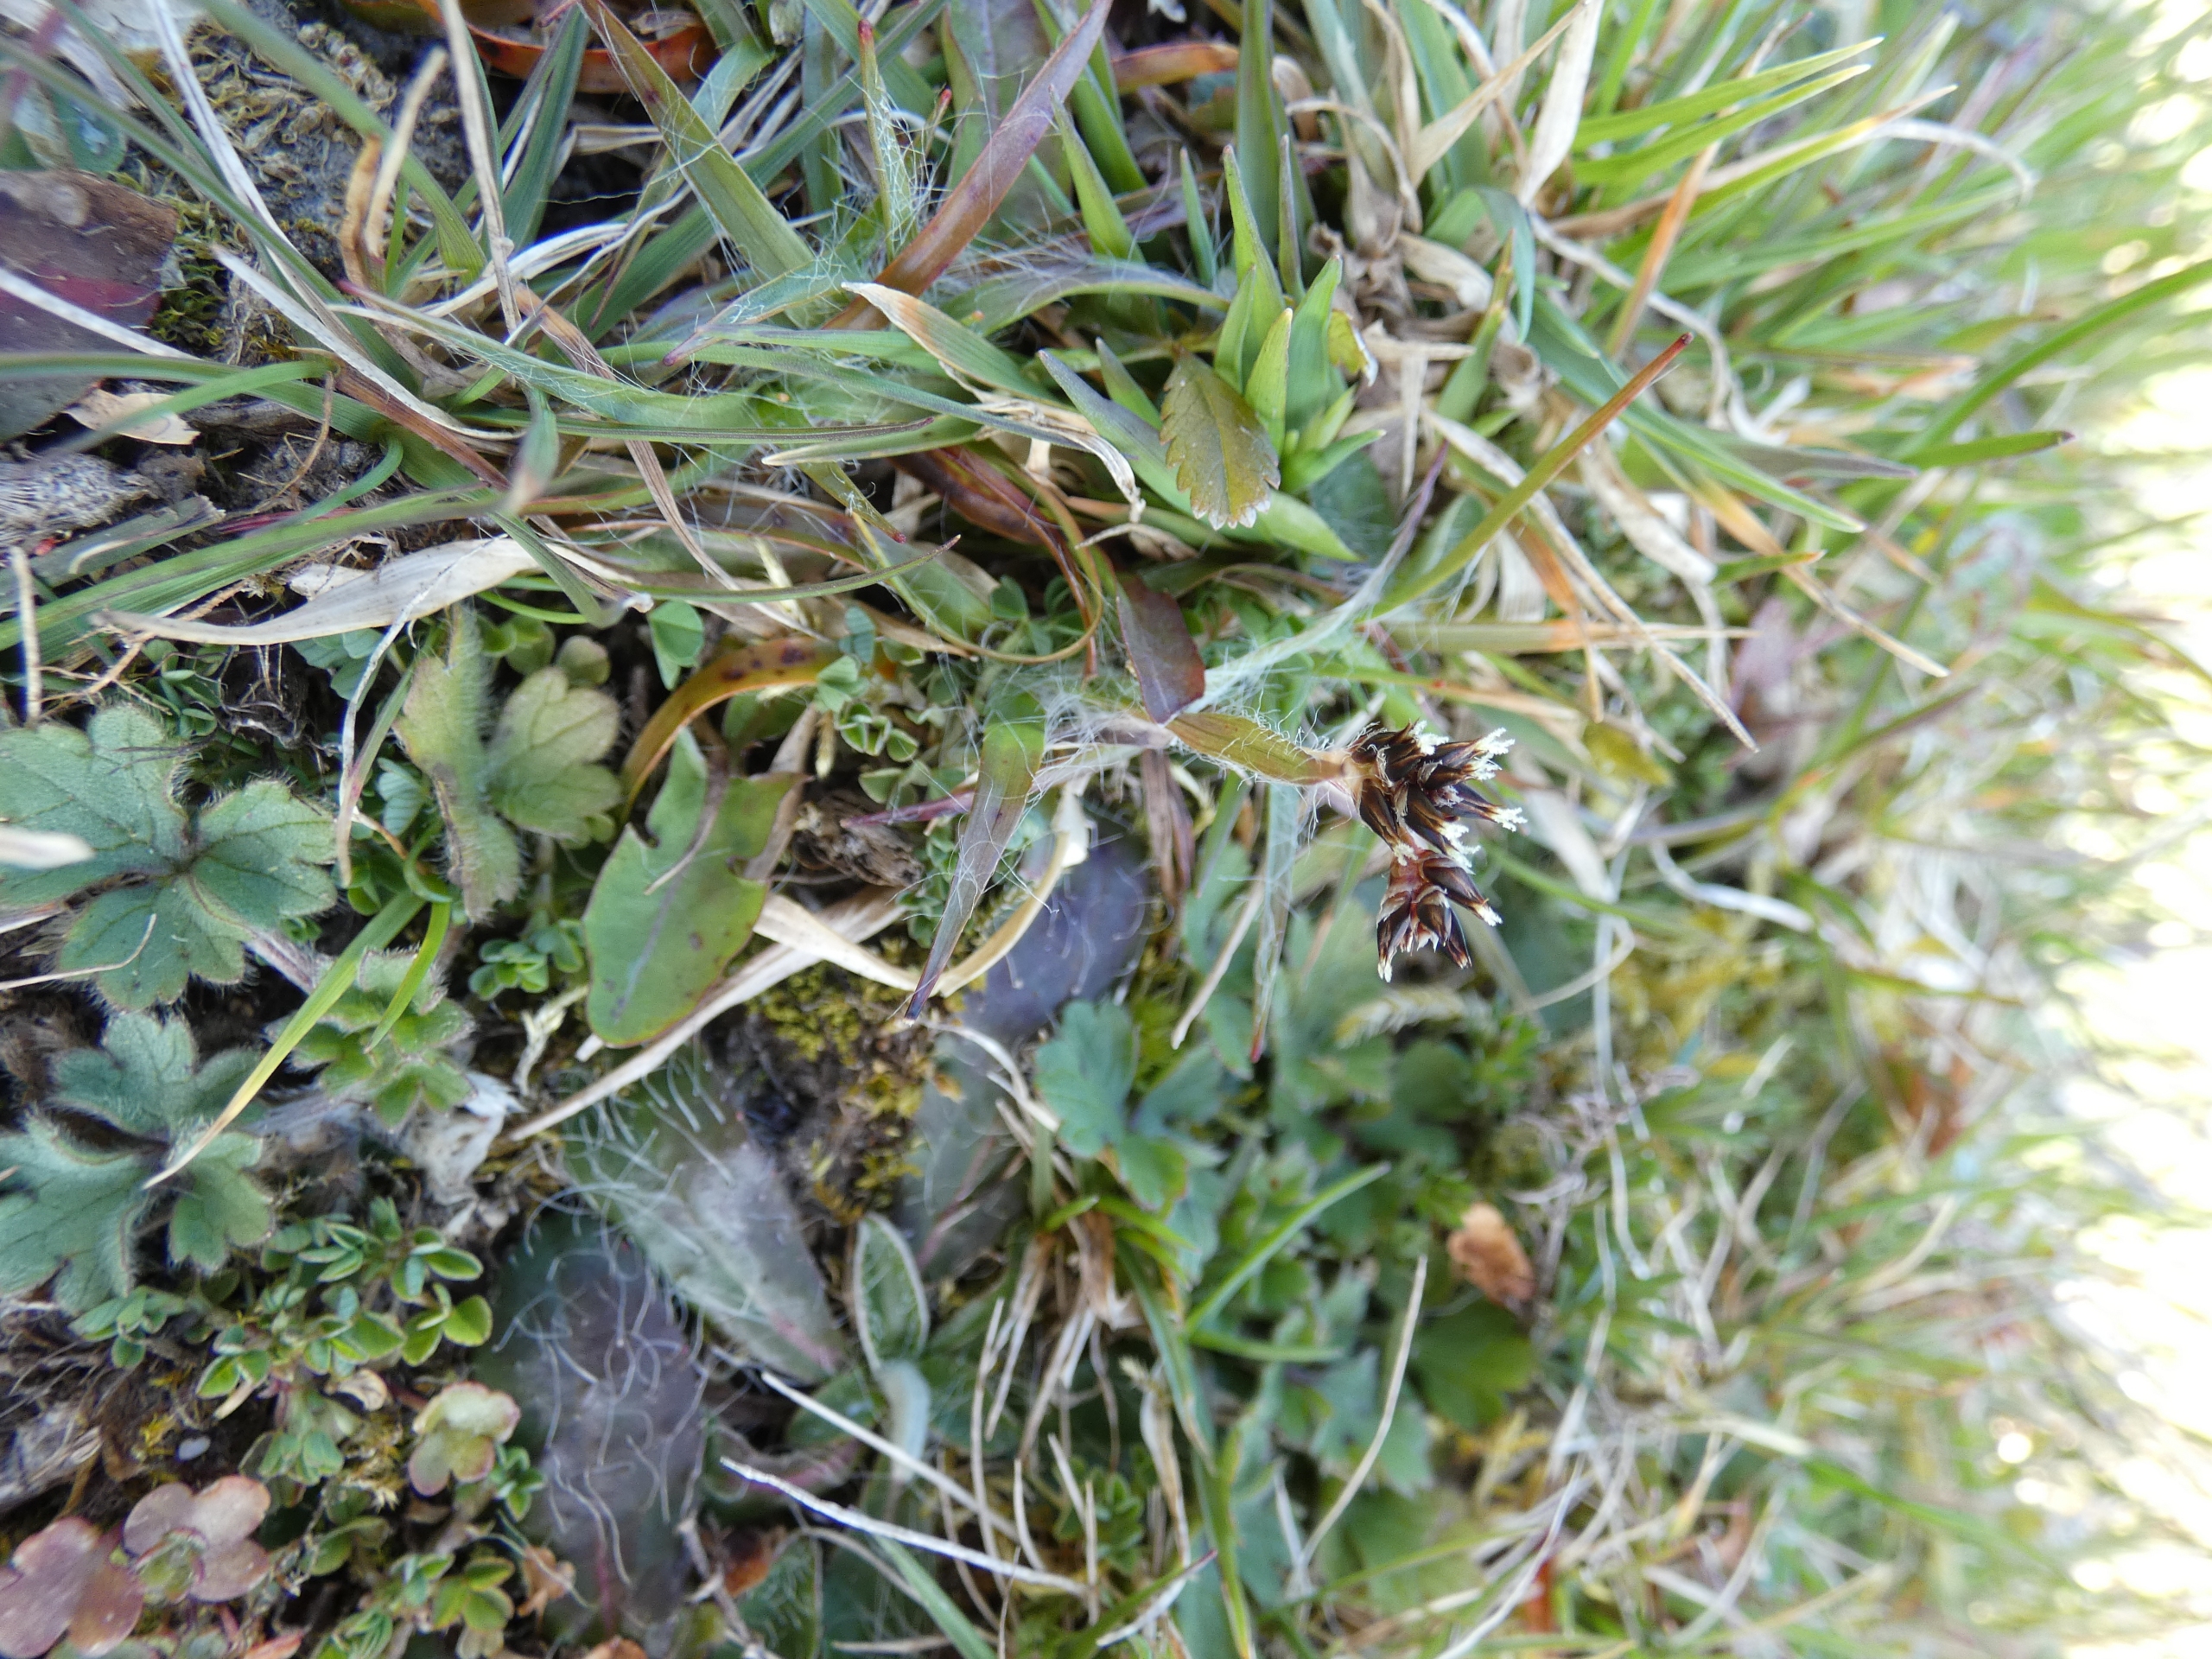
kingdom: Plantae
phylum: Tracheophyta
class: Liliopsida
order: Poales
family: Juncaceae
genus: Luzula
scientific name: Luzula campestris
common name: Mark-frytle
